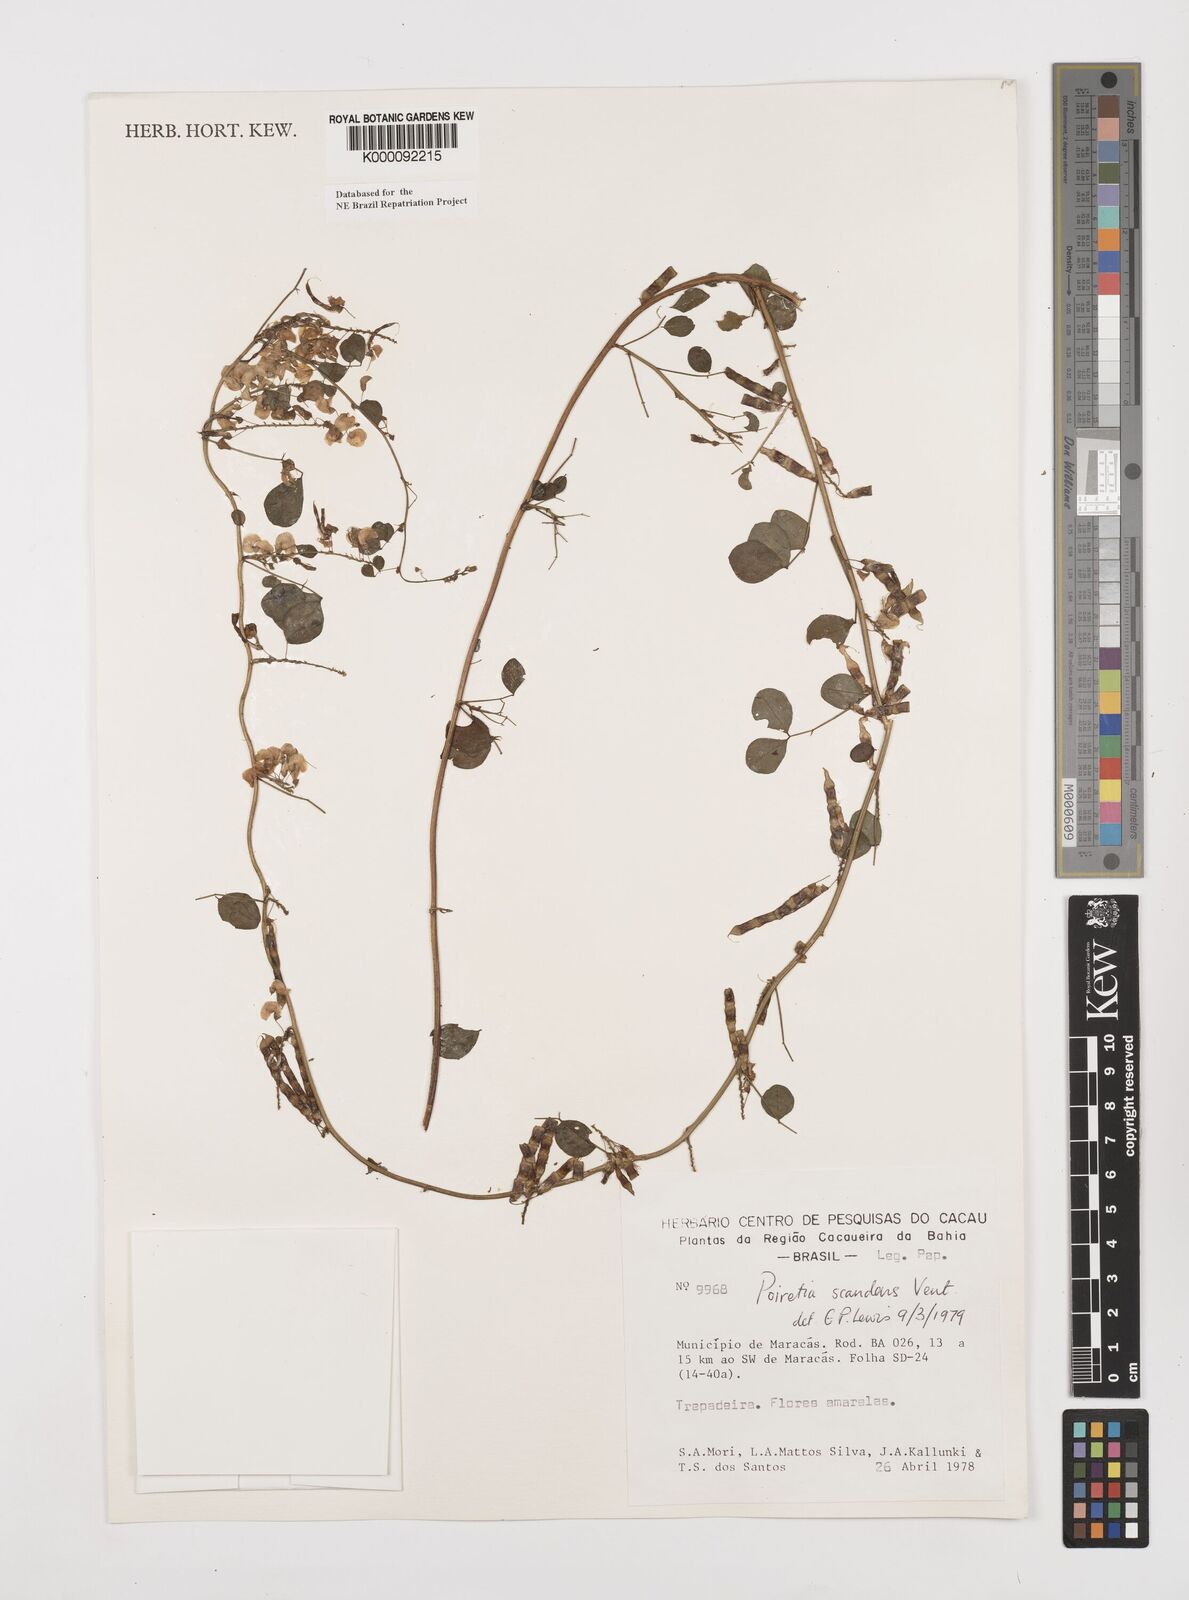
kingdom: Plantae
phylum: Tracheophyta
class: Magnoliopsida
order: Fabales
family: Fabaceae
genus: Poiretia
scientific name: Poiretia punctata
